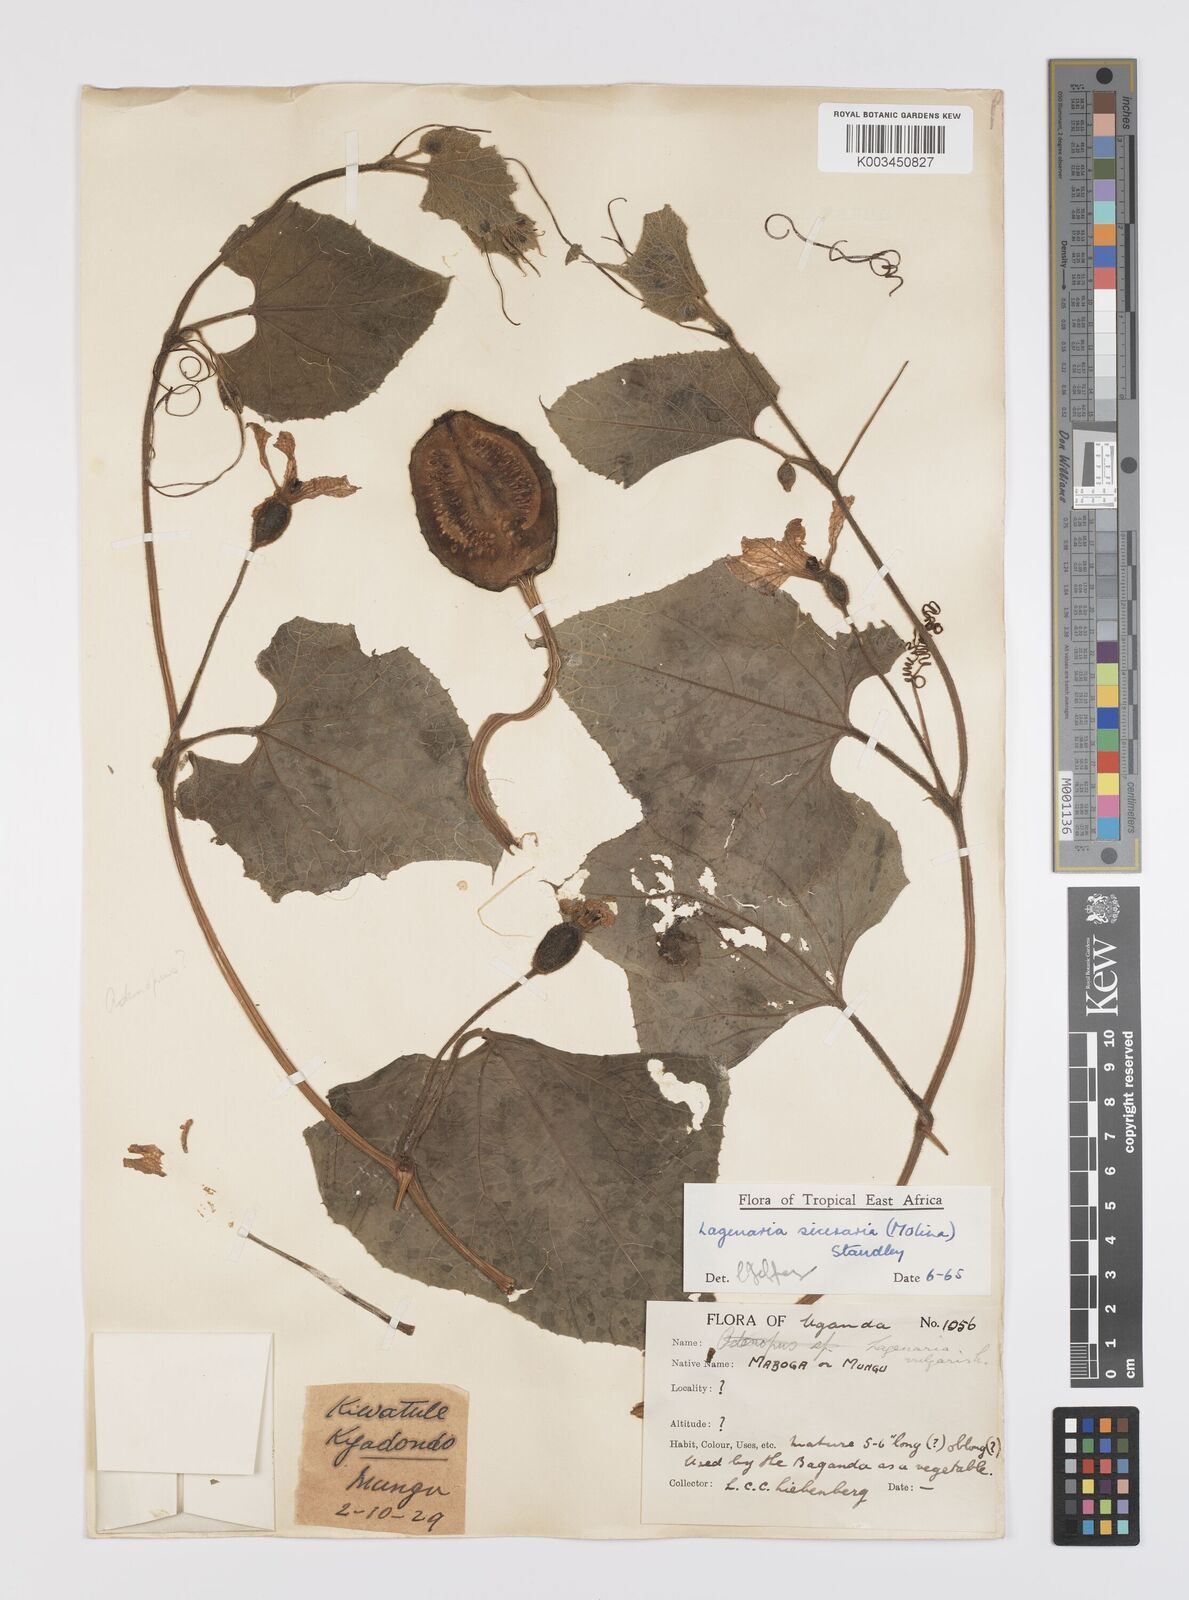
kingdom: Plantae
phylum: Tracheophyta
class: Magnoliopsida
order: Cucurbitales
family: Cucurbitaceae
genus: Lagenaria
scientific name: Lagenaria siceraria
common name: Bottle gourd
